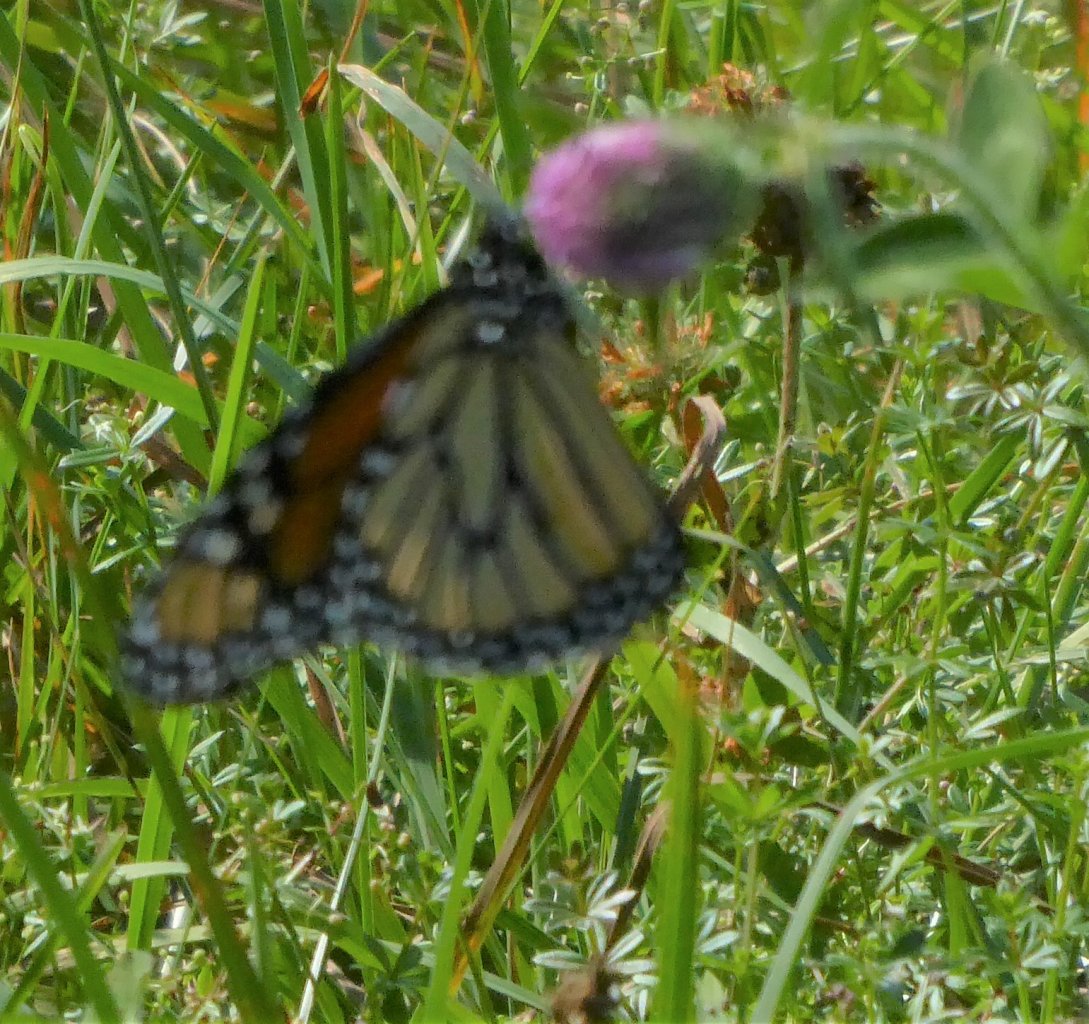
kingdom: Animalia
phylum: Arthropoda
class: Insecta
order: Lepidoptera
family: Nymphalidae
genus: Danaus
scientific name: Danaus plexippus
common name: Monarch
